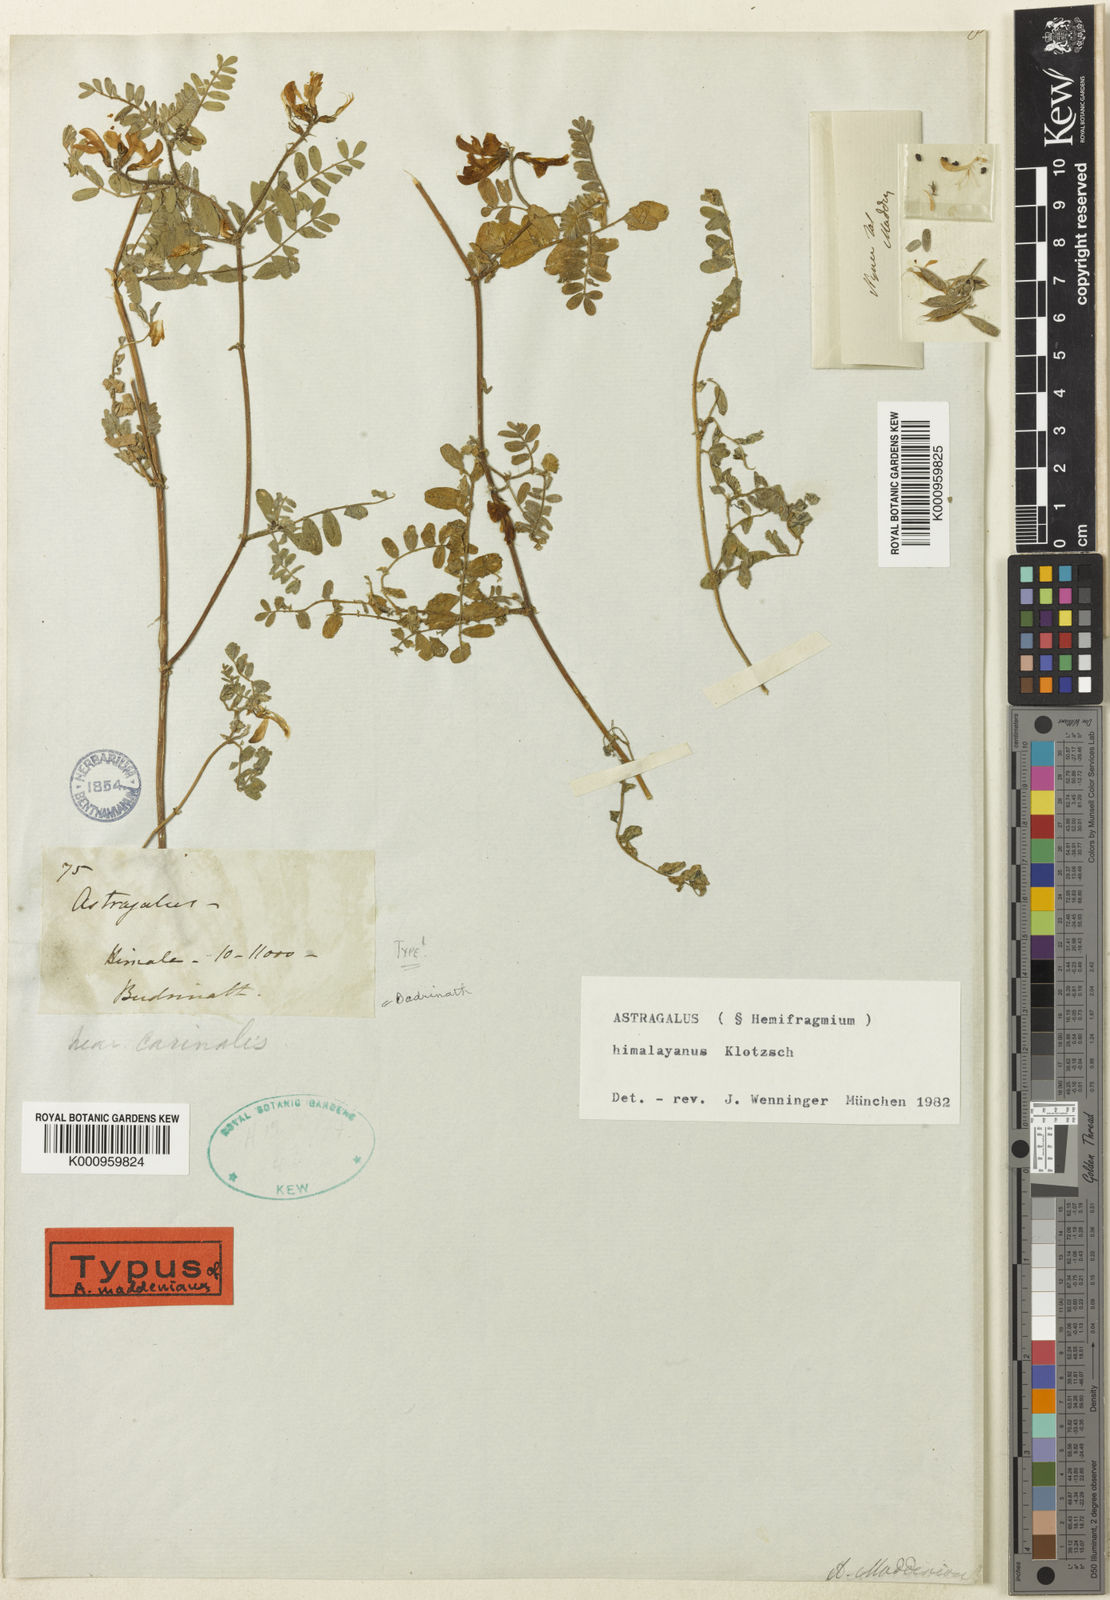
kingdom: Plantae
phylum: Tracheophyta
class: Magnoliopsida
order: Fabales
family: Fabaceae
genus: Astragalus
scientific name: Astragalus
